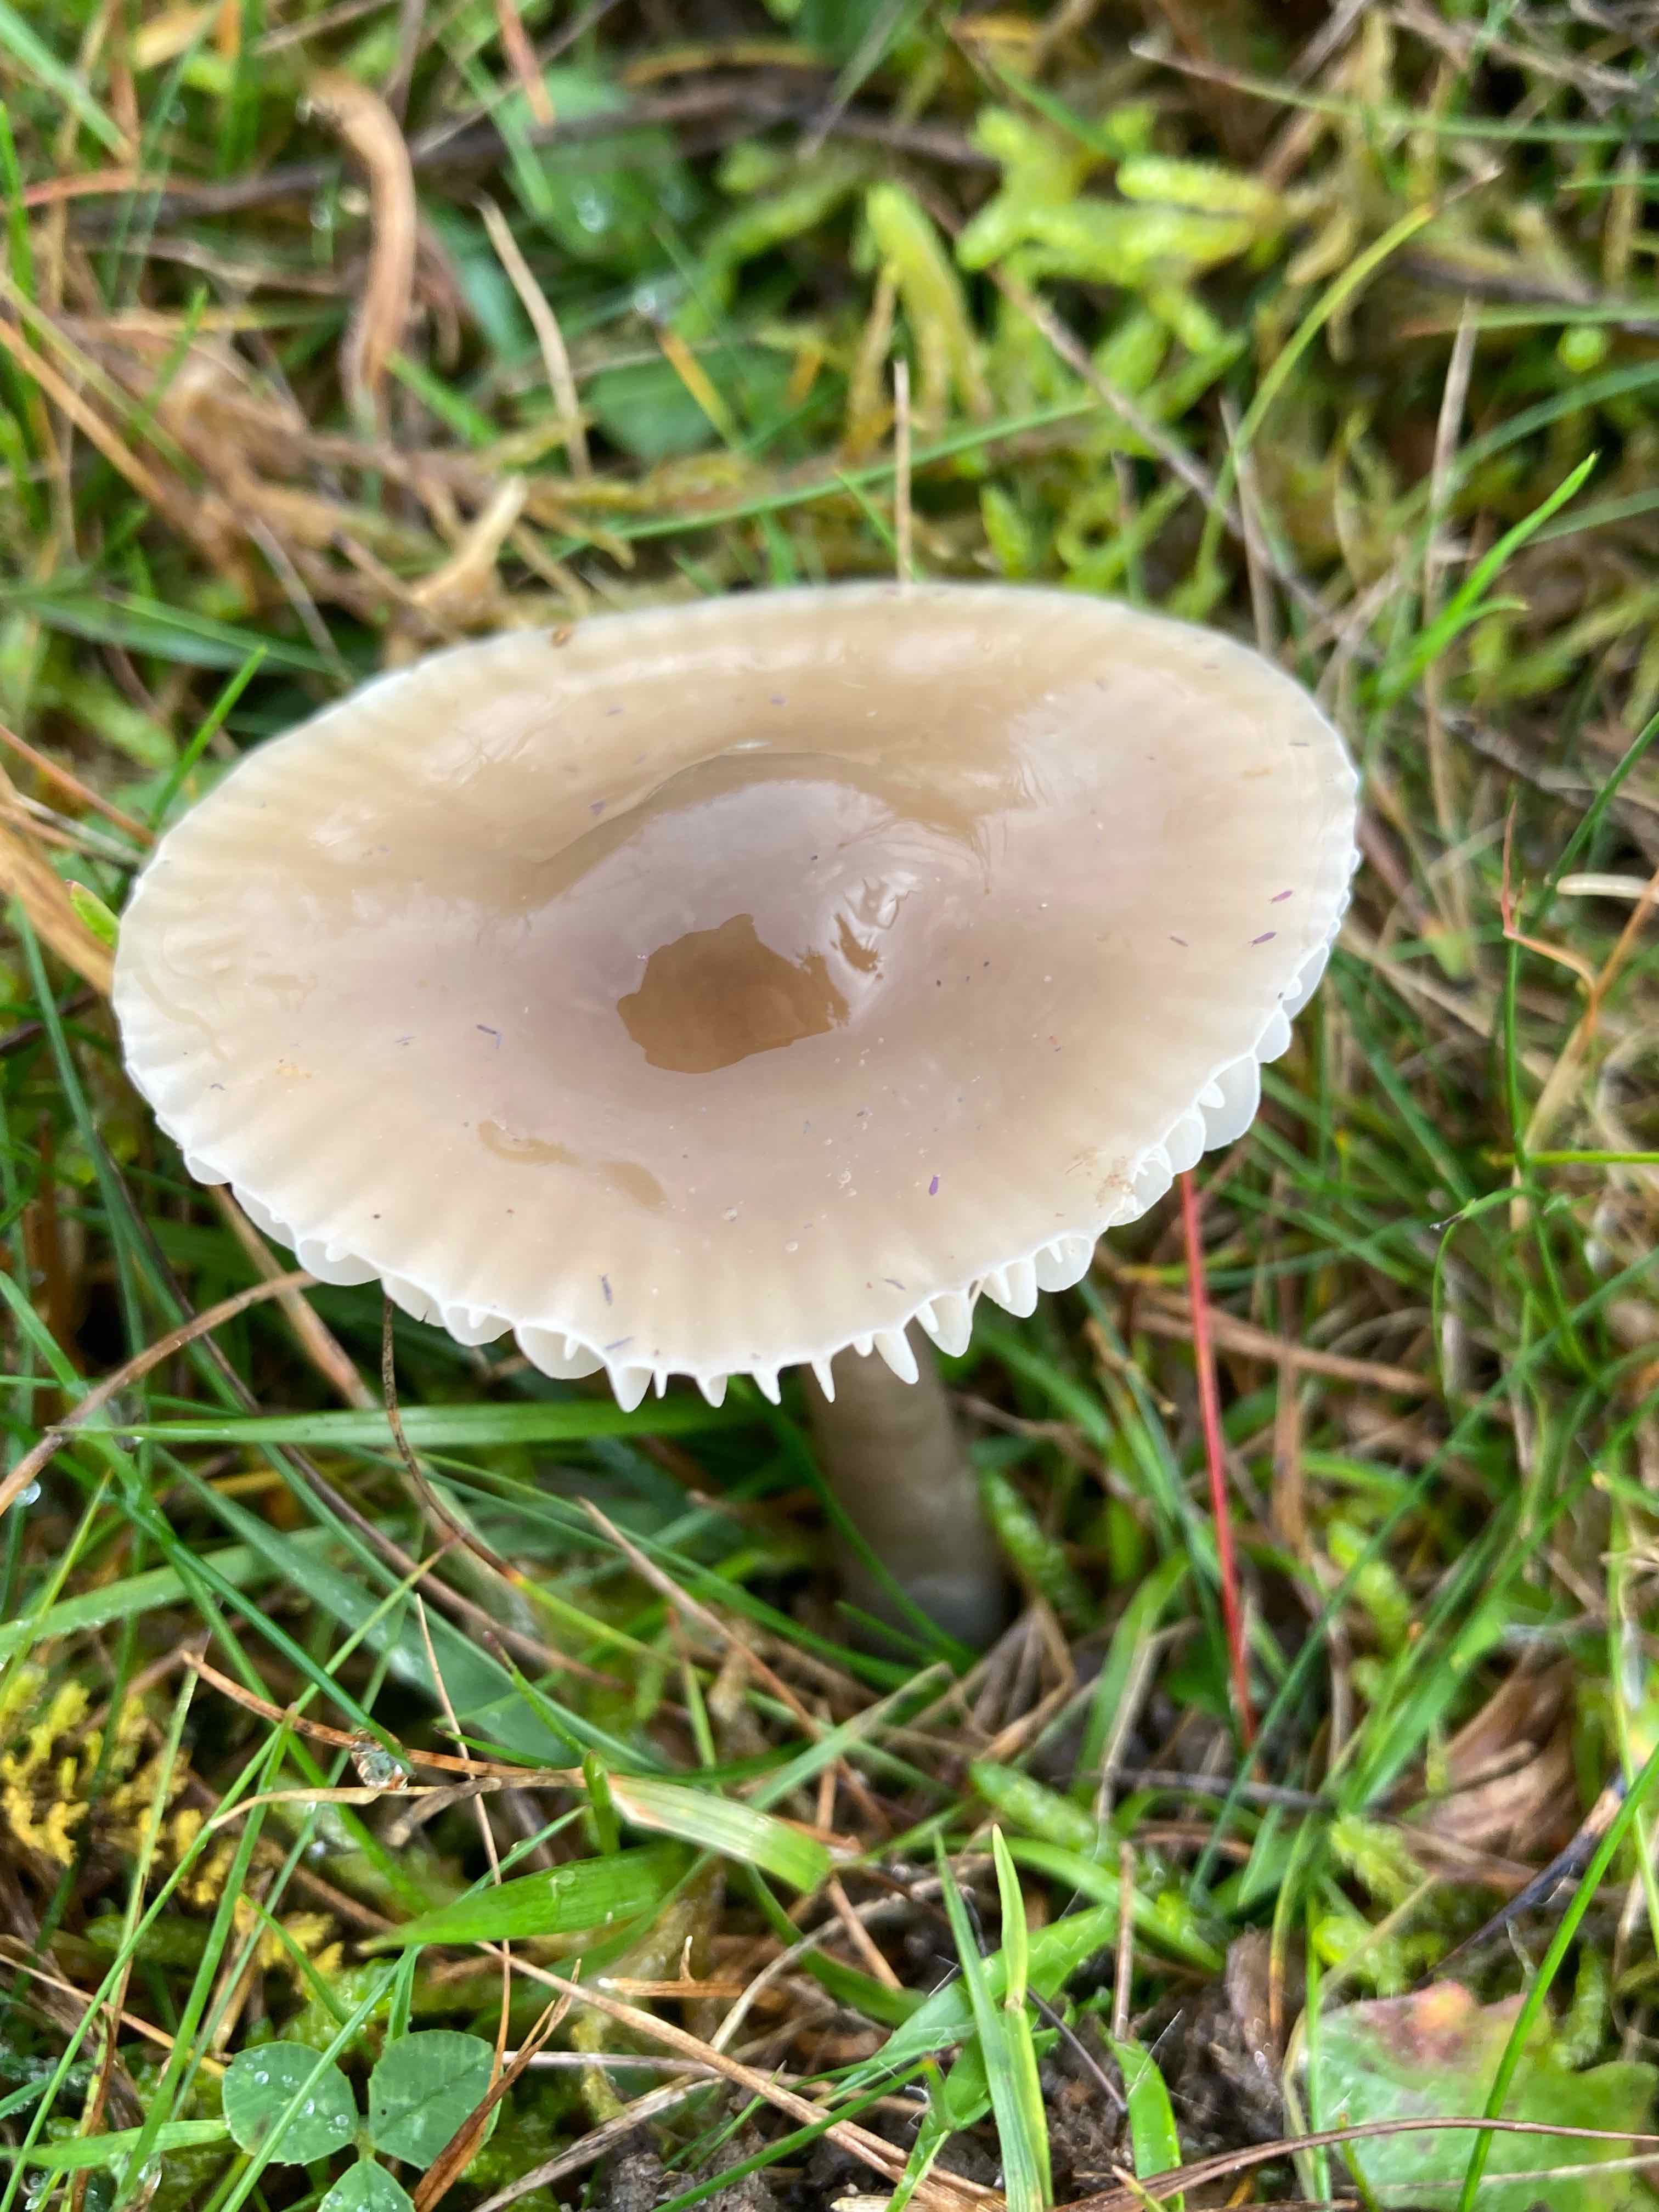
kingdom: Fungi
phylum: Basidiomycota
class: Agaricomycetes
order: Agaricales
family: Hygrophoraceae
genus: Gliophorus
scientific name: Gliophorus irrigatus
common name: slimet vokshat
